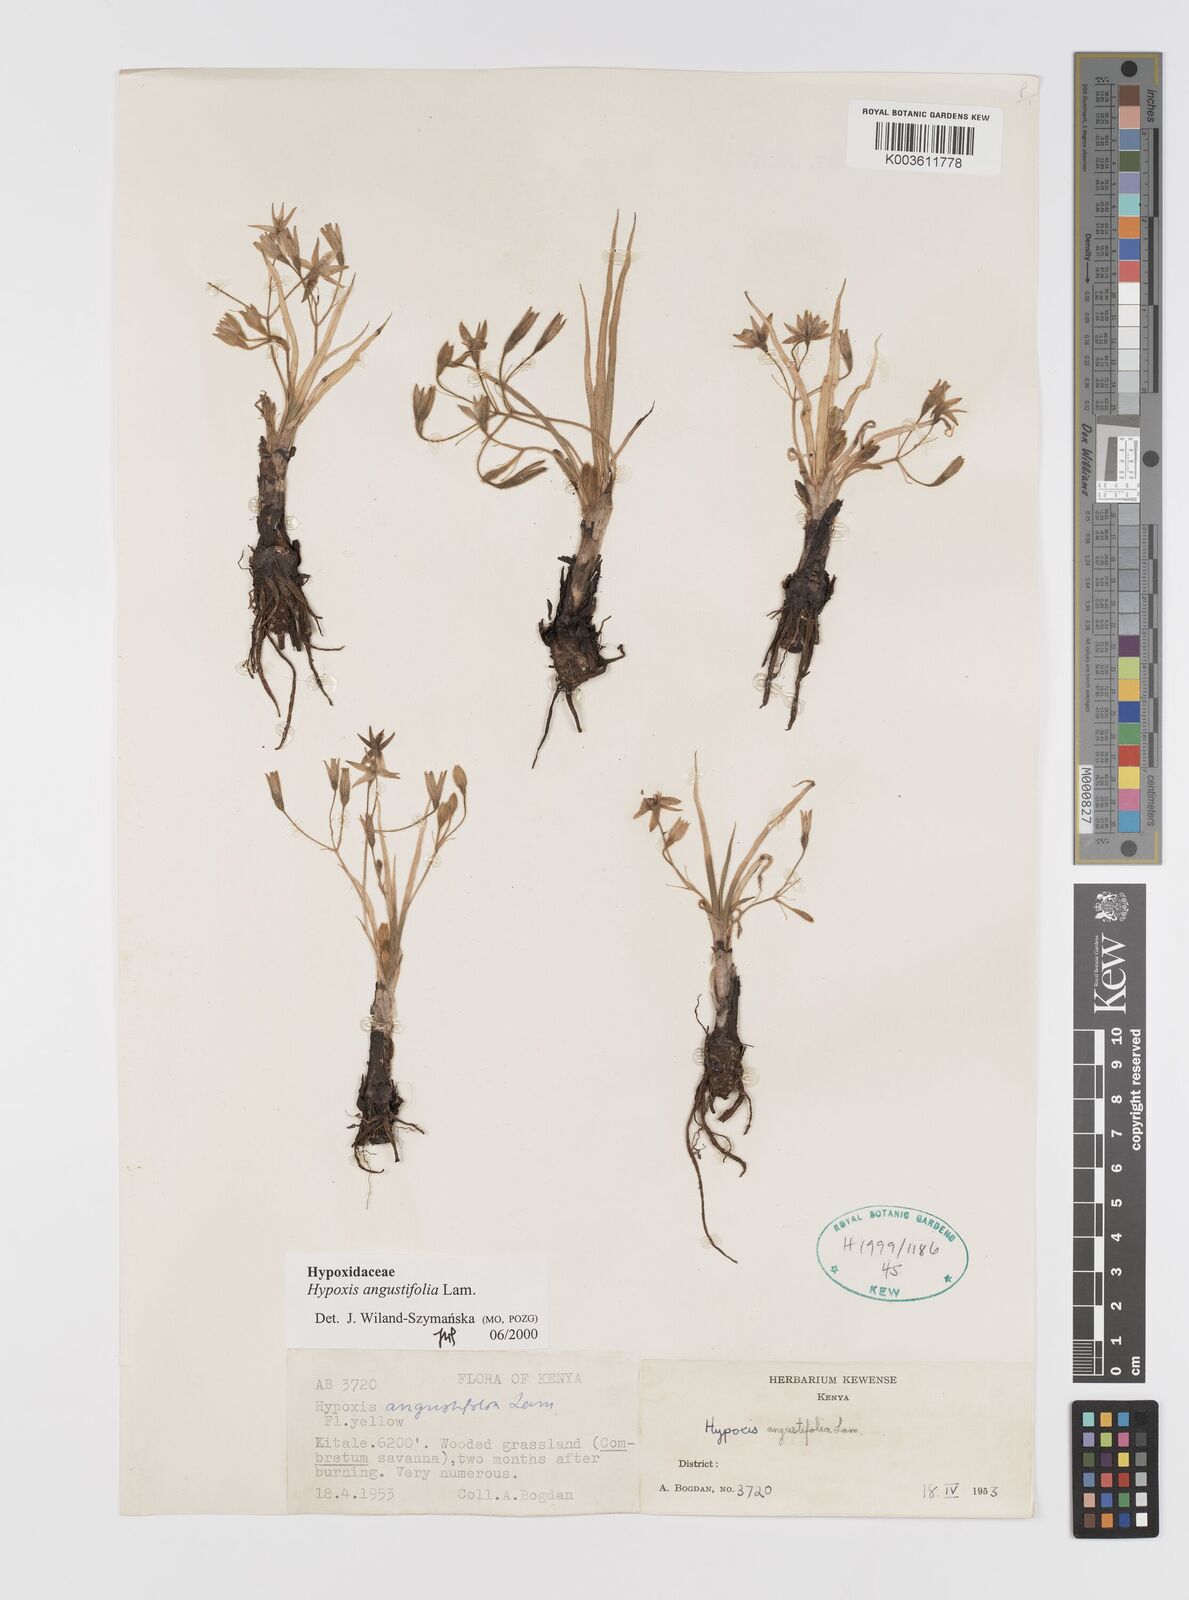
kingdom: Plantae
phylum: Tracheophyta
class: Liliopsida
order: Asparagales
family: Hypoxidaceae
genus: Hypoxis
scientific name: Hypoxis angustifolia
